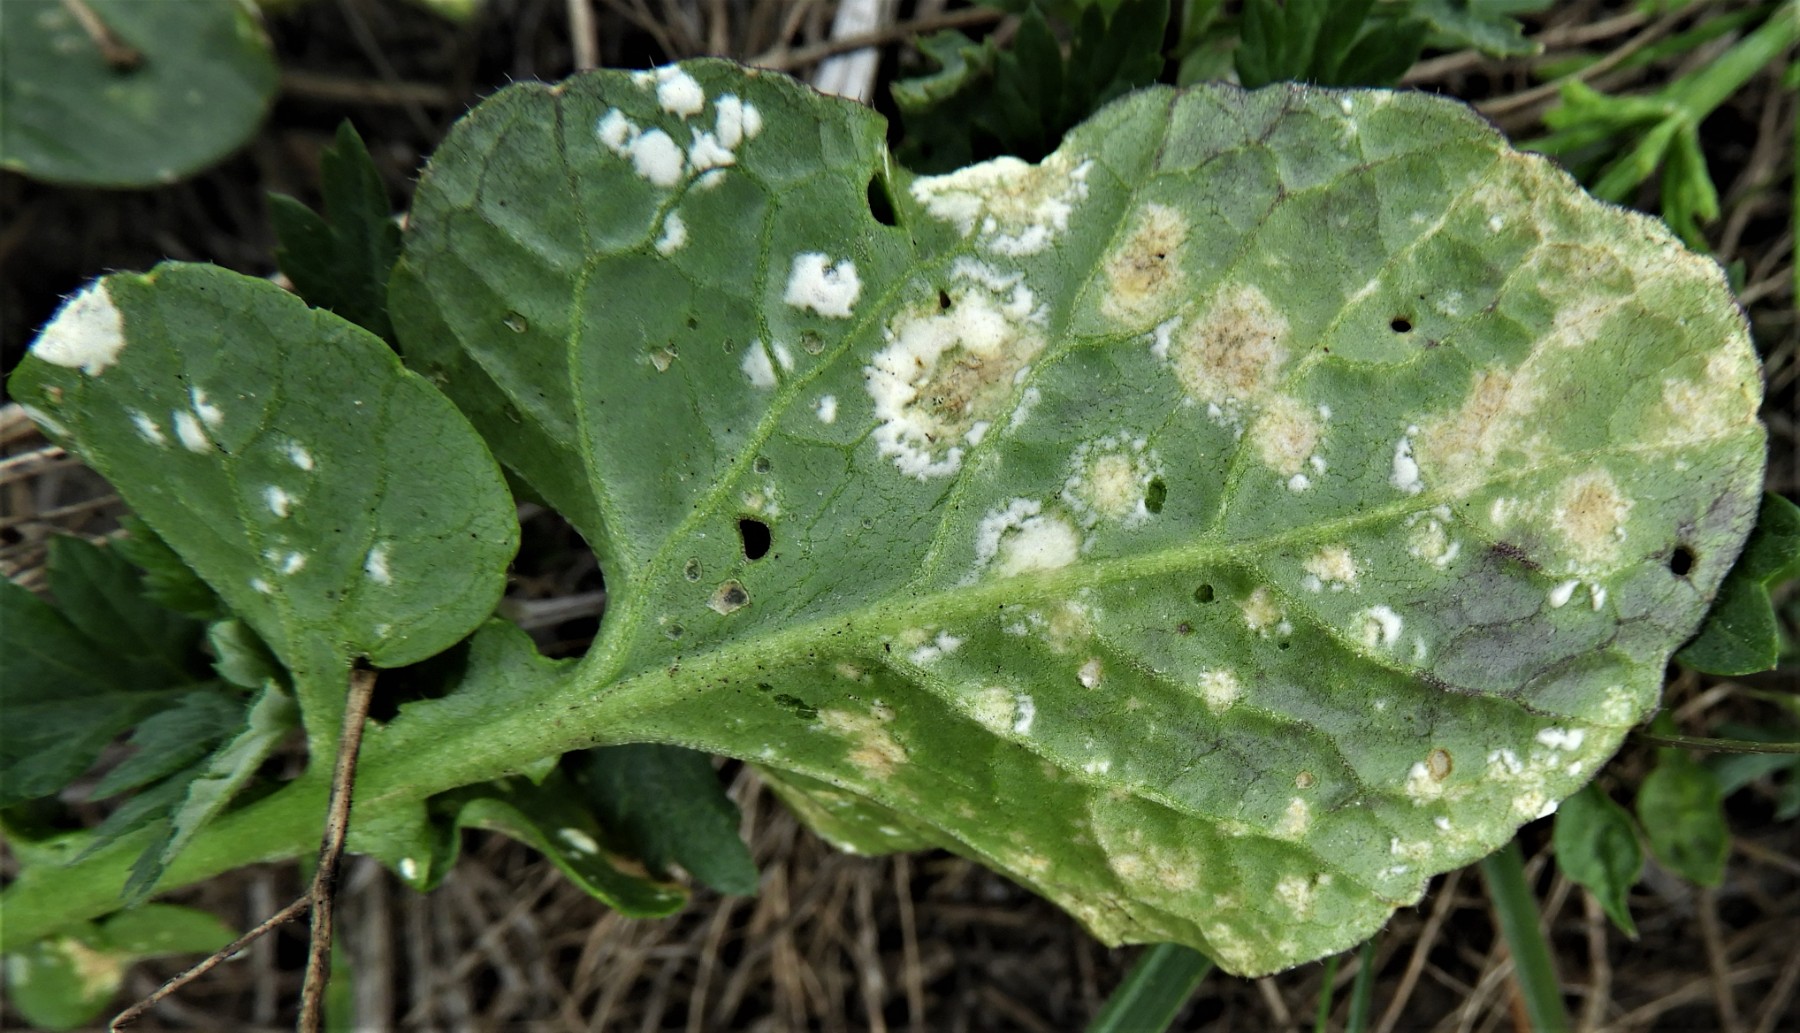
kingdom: Chromista
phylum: Oomycota
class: Peronosporea
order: Albuginales
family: Albuginaceae
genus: Albugo
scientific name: Albugo candida
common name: Crucifer white blister
